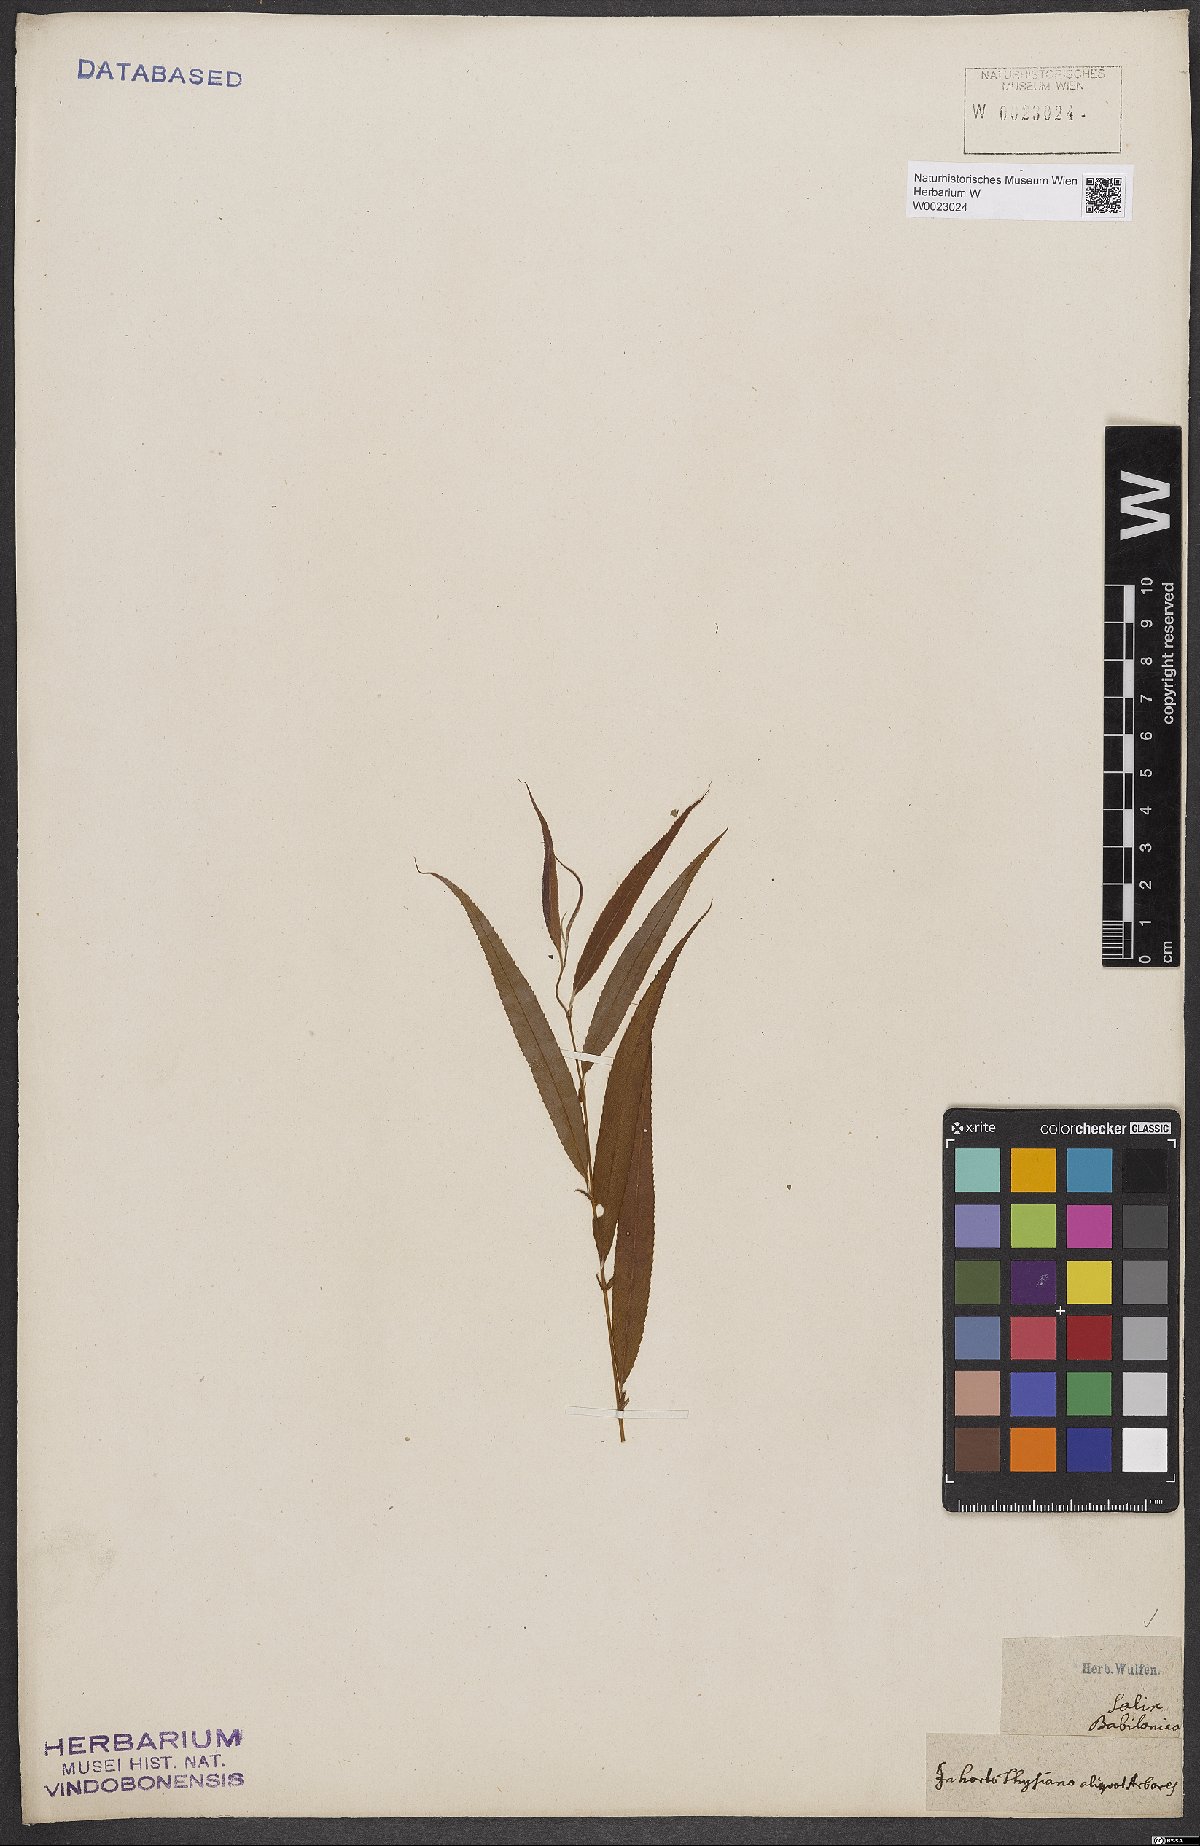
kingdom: Plantae
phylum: Tracheophyta
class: Magnoliopsida
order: Malpighiales
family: Salicaceae
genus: Salix
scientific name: Salix babylonica
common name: Weeping willow
